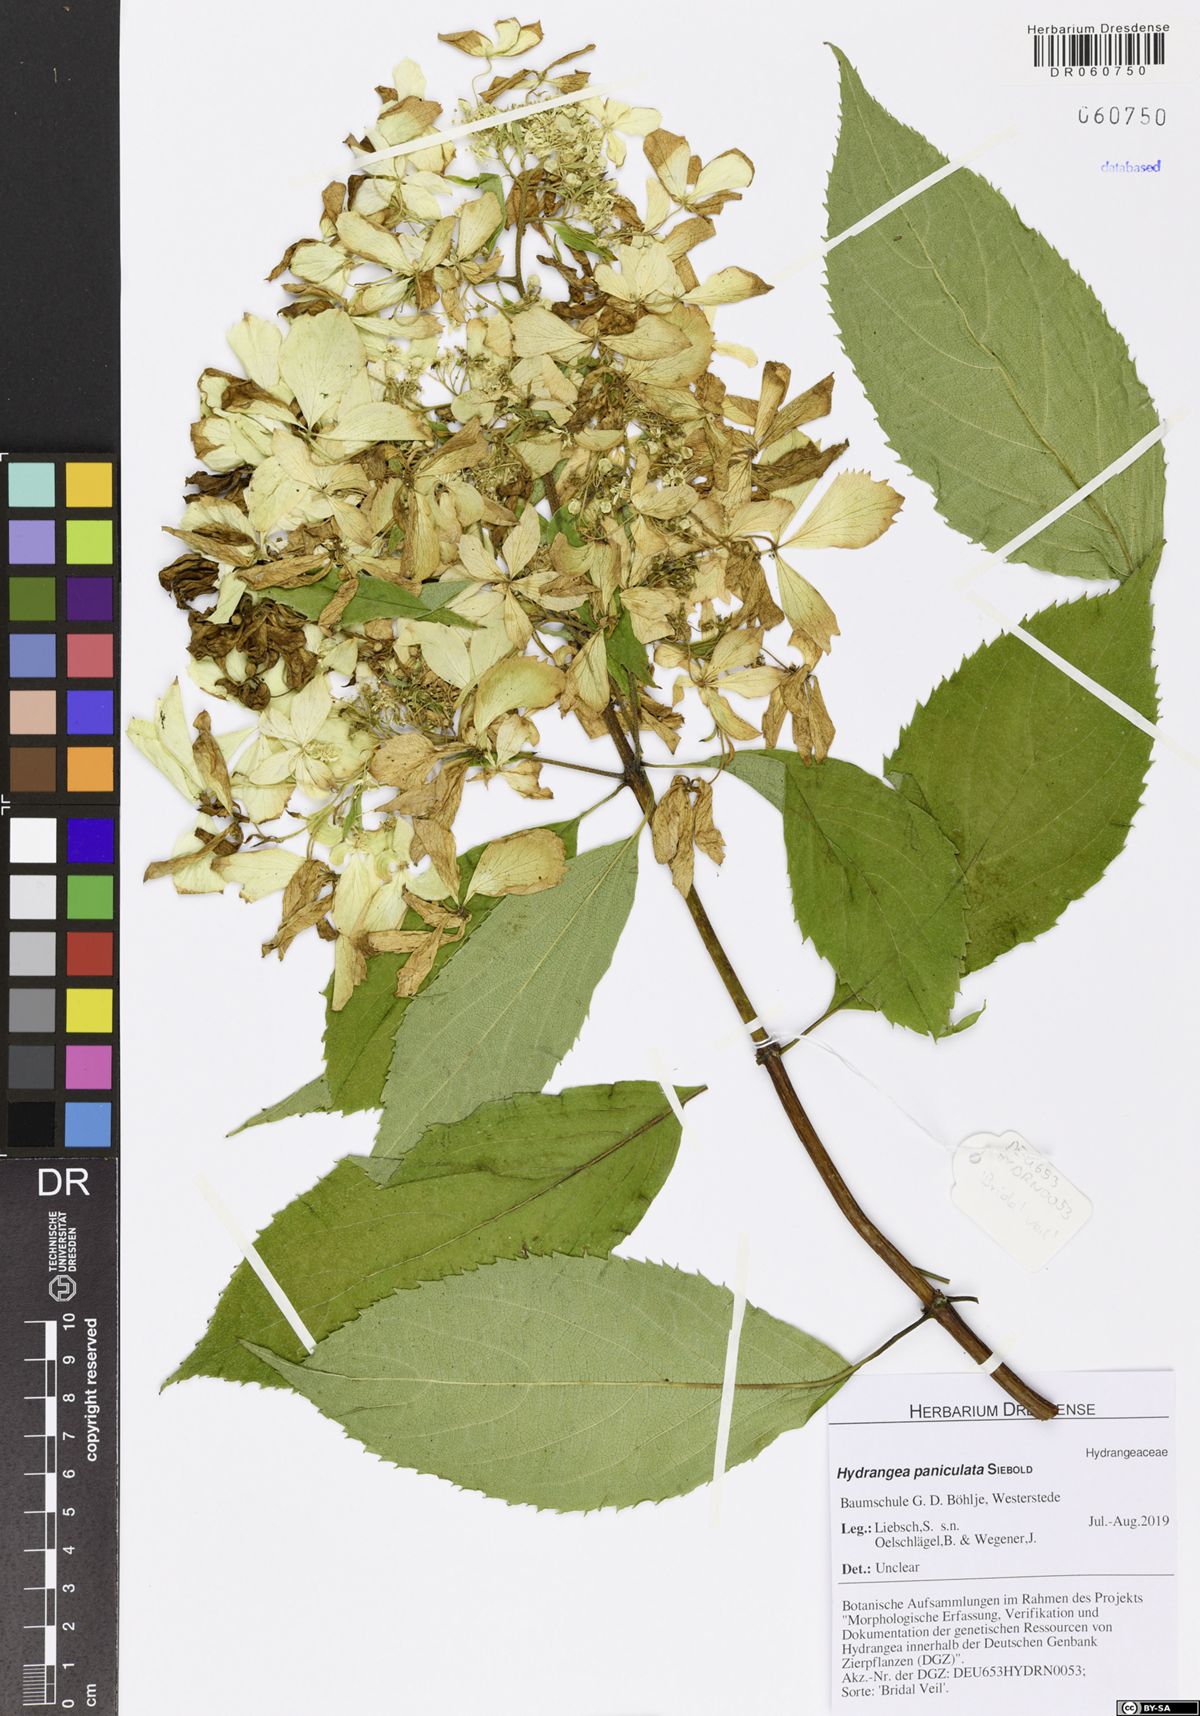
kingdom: Plantae
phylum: Tracheophyta
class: Magnoliopsida
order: Cornales
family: Hydrangeaceae
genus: Hydrangea
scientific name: Hydrangea paniculata
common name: Panicled hydrangea
